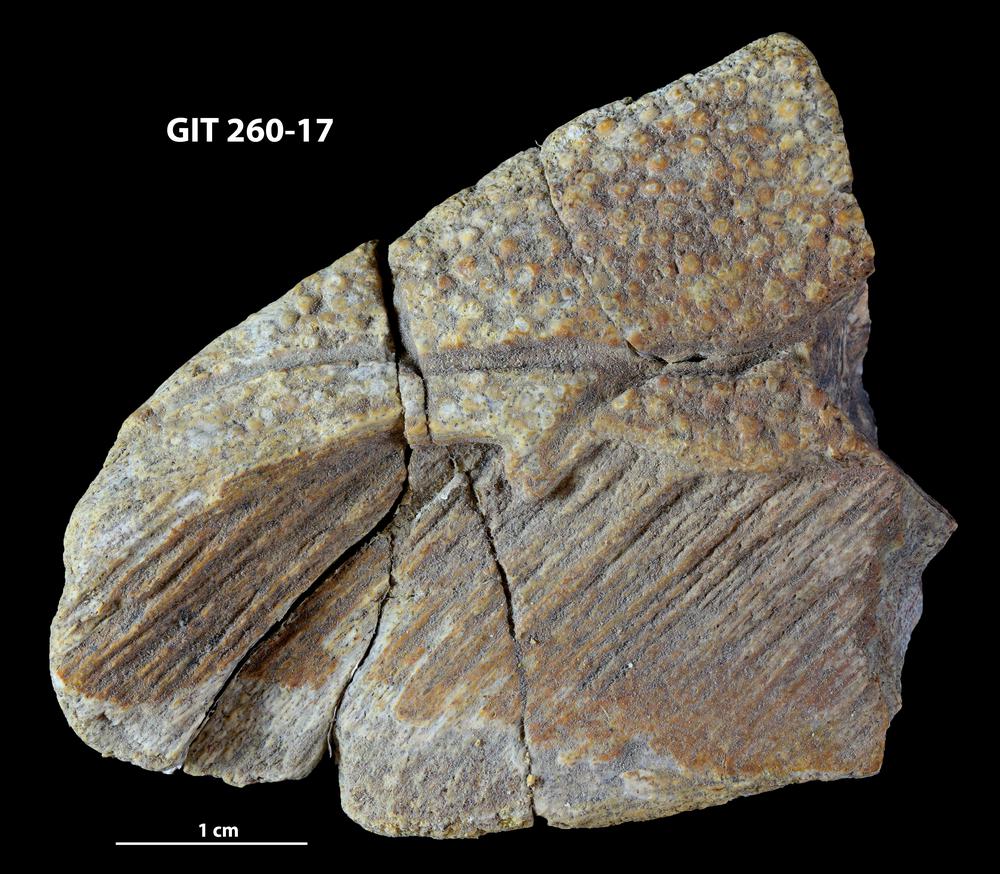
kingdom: Animalia
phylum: Chordata
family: Homostiidae
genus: Homostius
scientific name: Homostius
